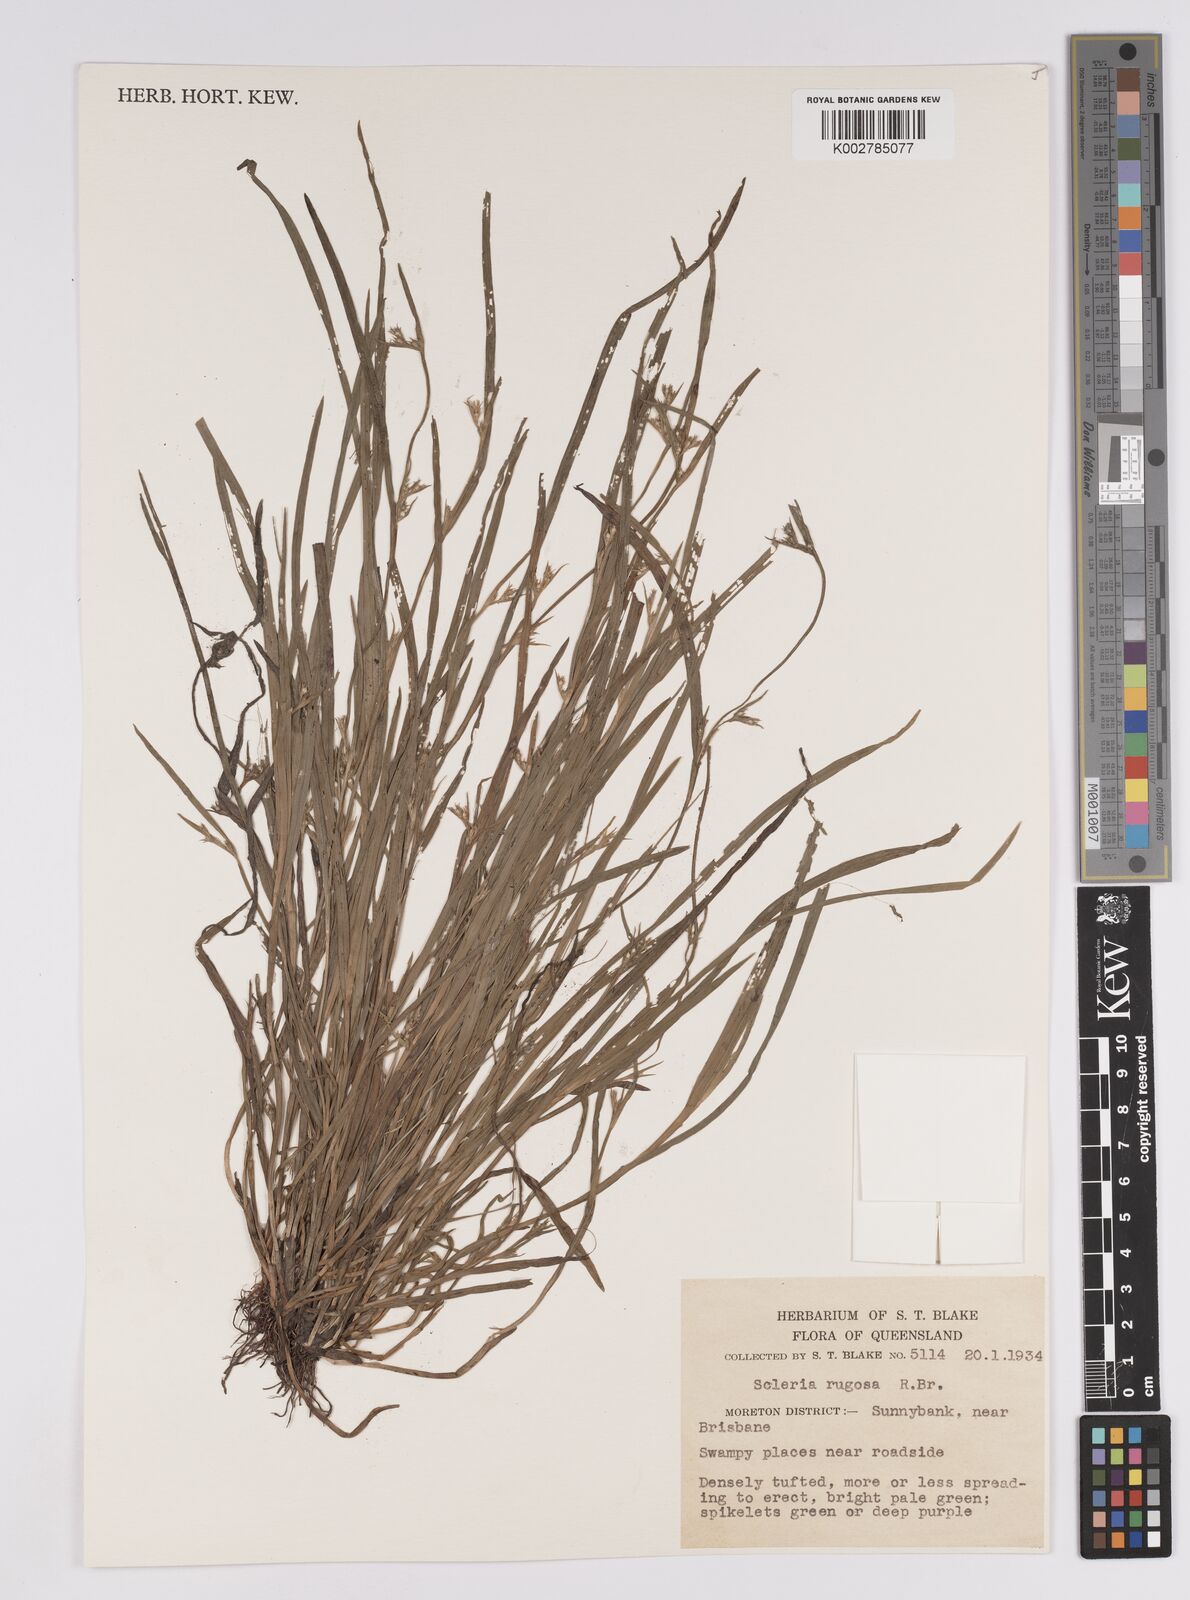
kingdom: Plantae
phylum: Tracheophyta
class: Liliopsida
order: Poales
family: Cyperaceae
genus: Scleria
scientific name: Scleria rugosa
